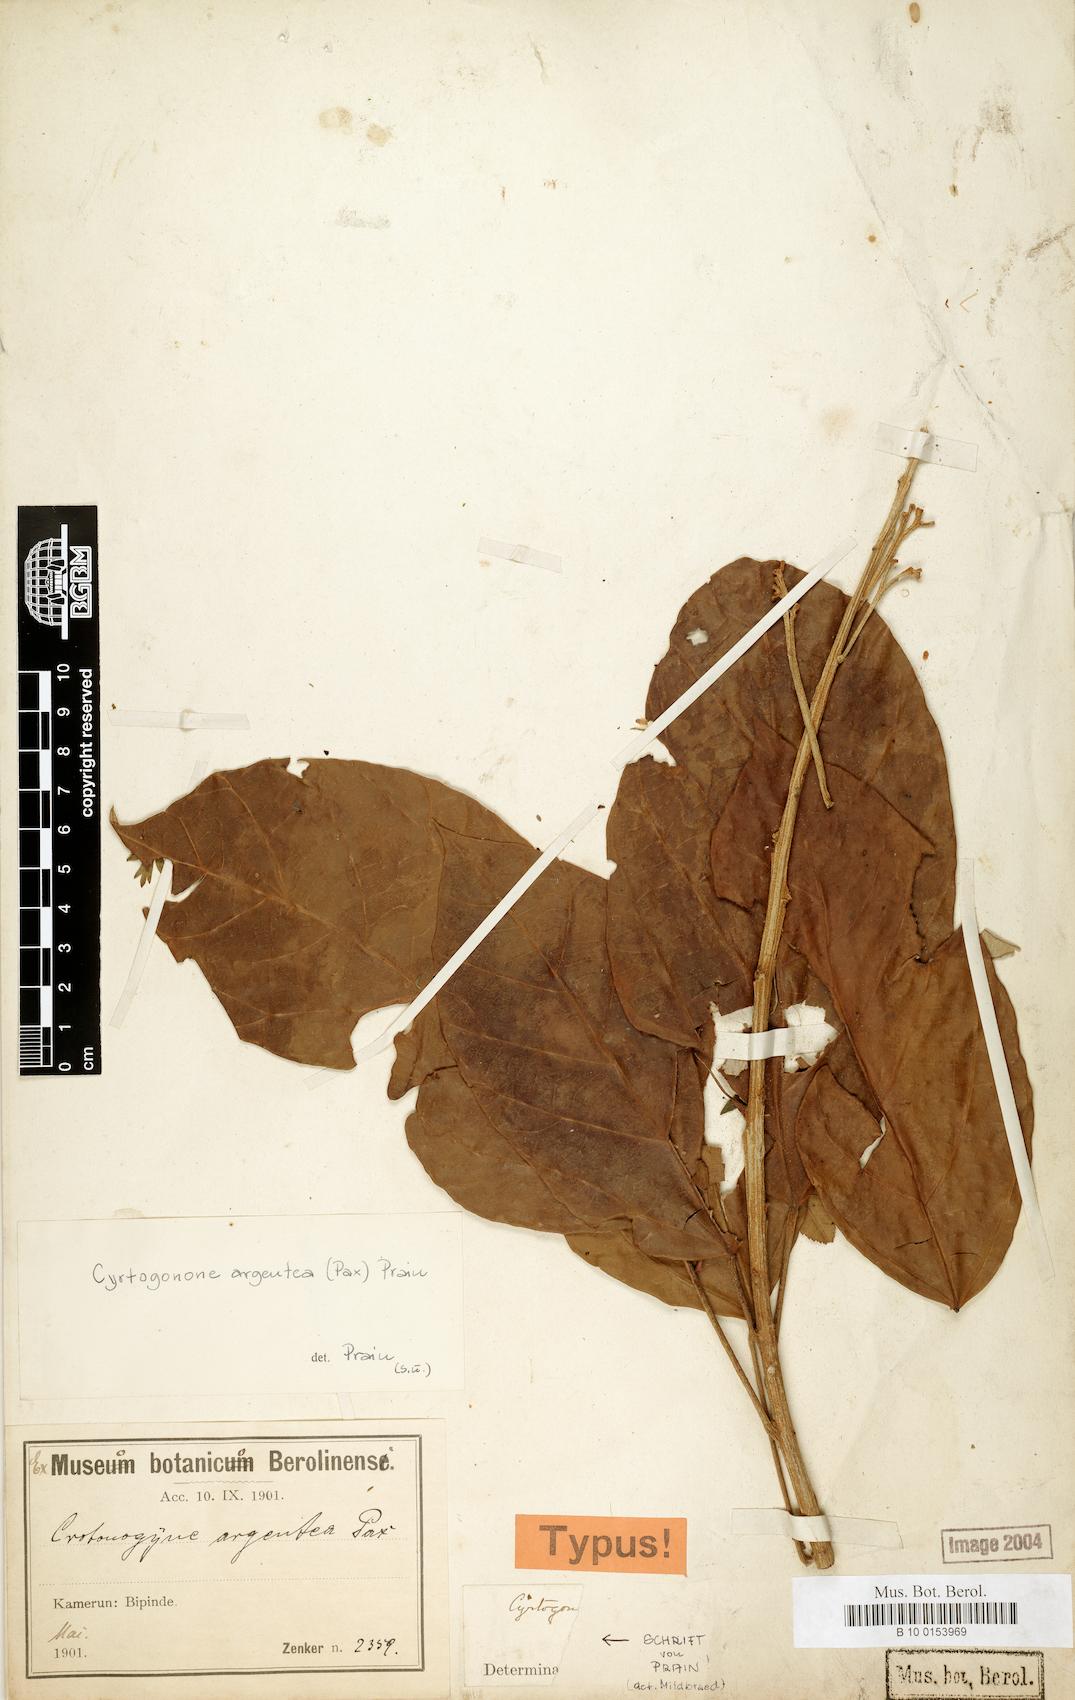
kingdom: Plantae
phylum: Tracheophyta
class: Magnoliopsida
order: Malpighiales
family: Euphorbiaceae
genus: Cyrtogonone
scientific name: Cyrtogonone argentea
